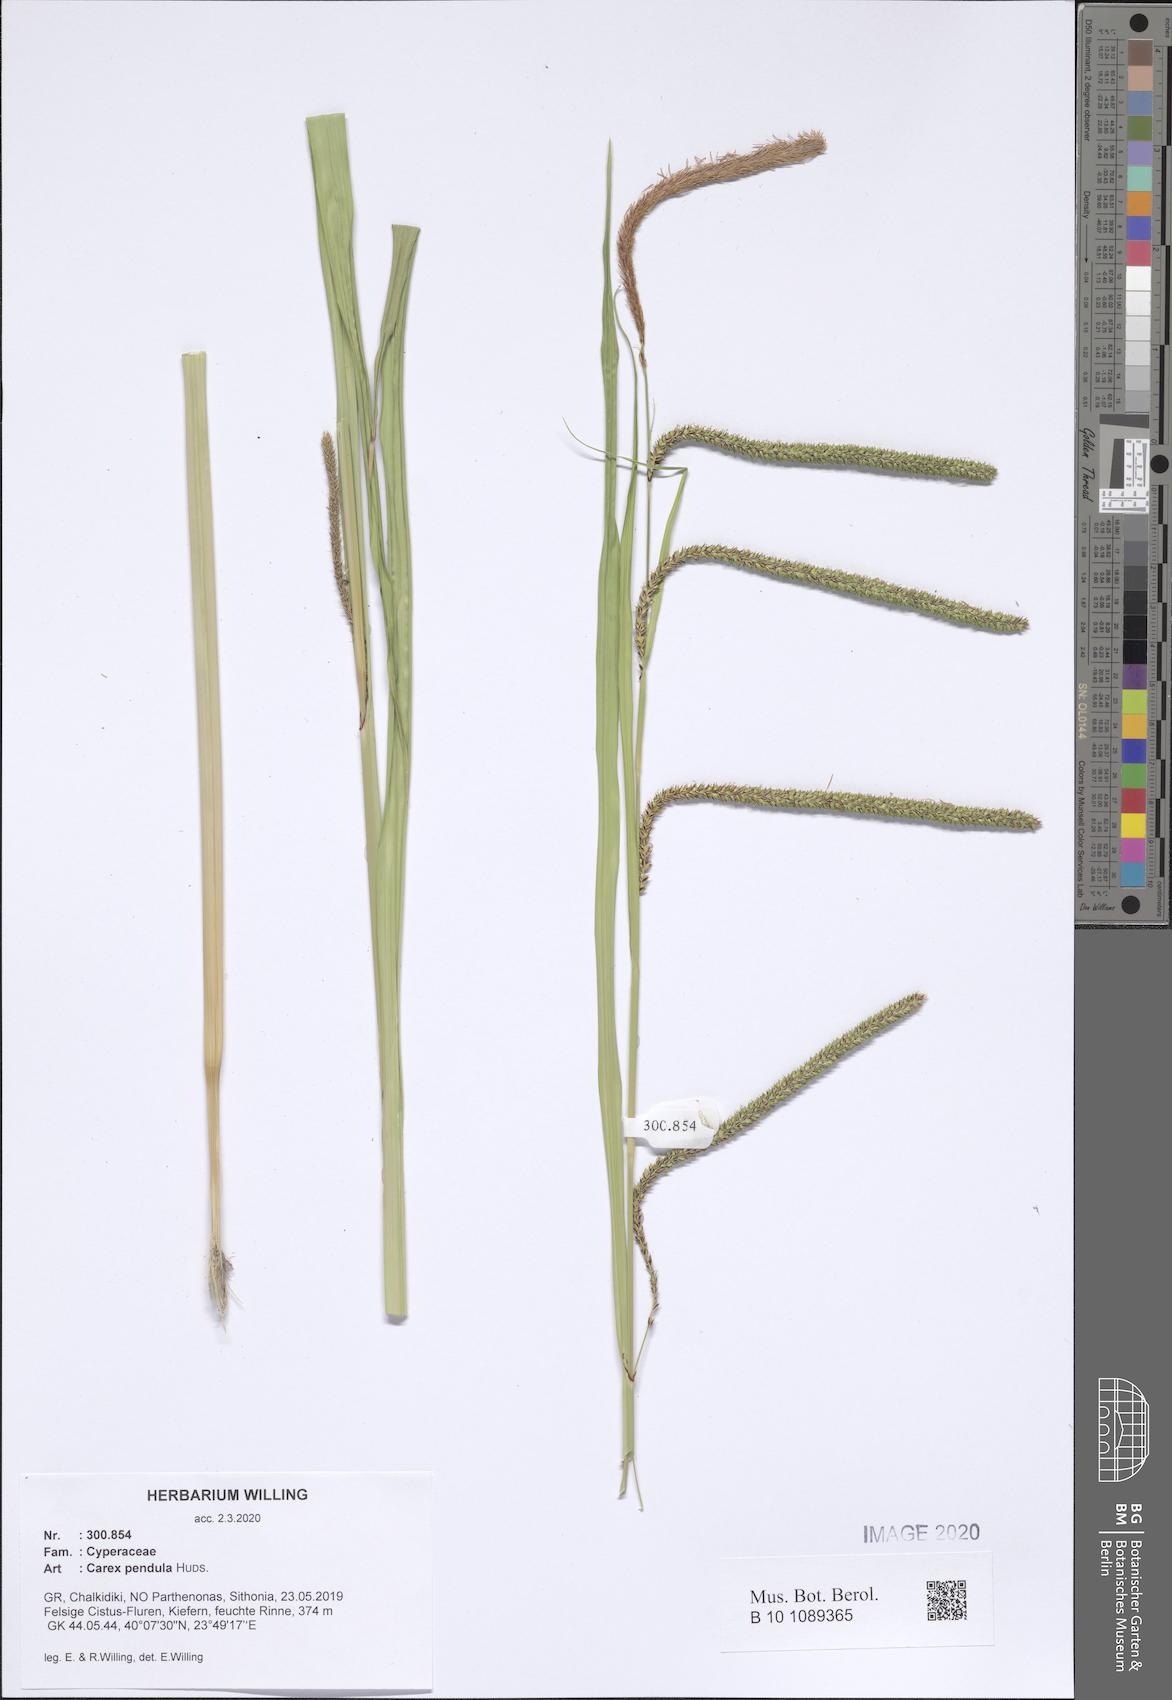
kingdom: Plantae
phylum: Tracheophyta
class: Liliopsida
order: Poales
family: Cyperaceae
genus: Carex
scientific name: Carex pendula
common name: Pendulous sedge
